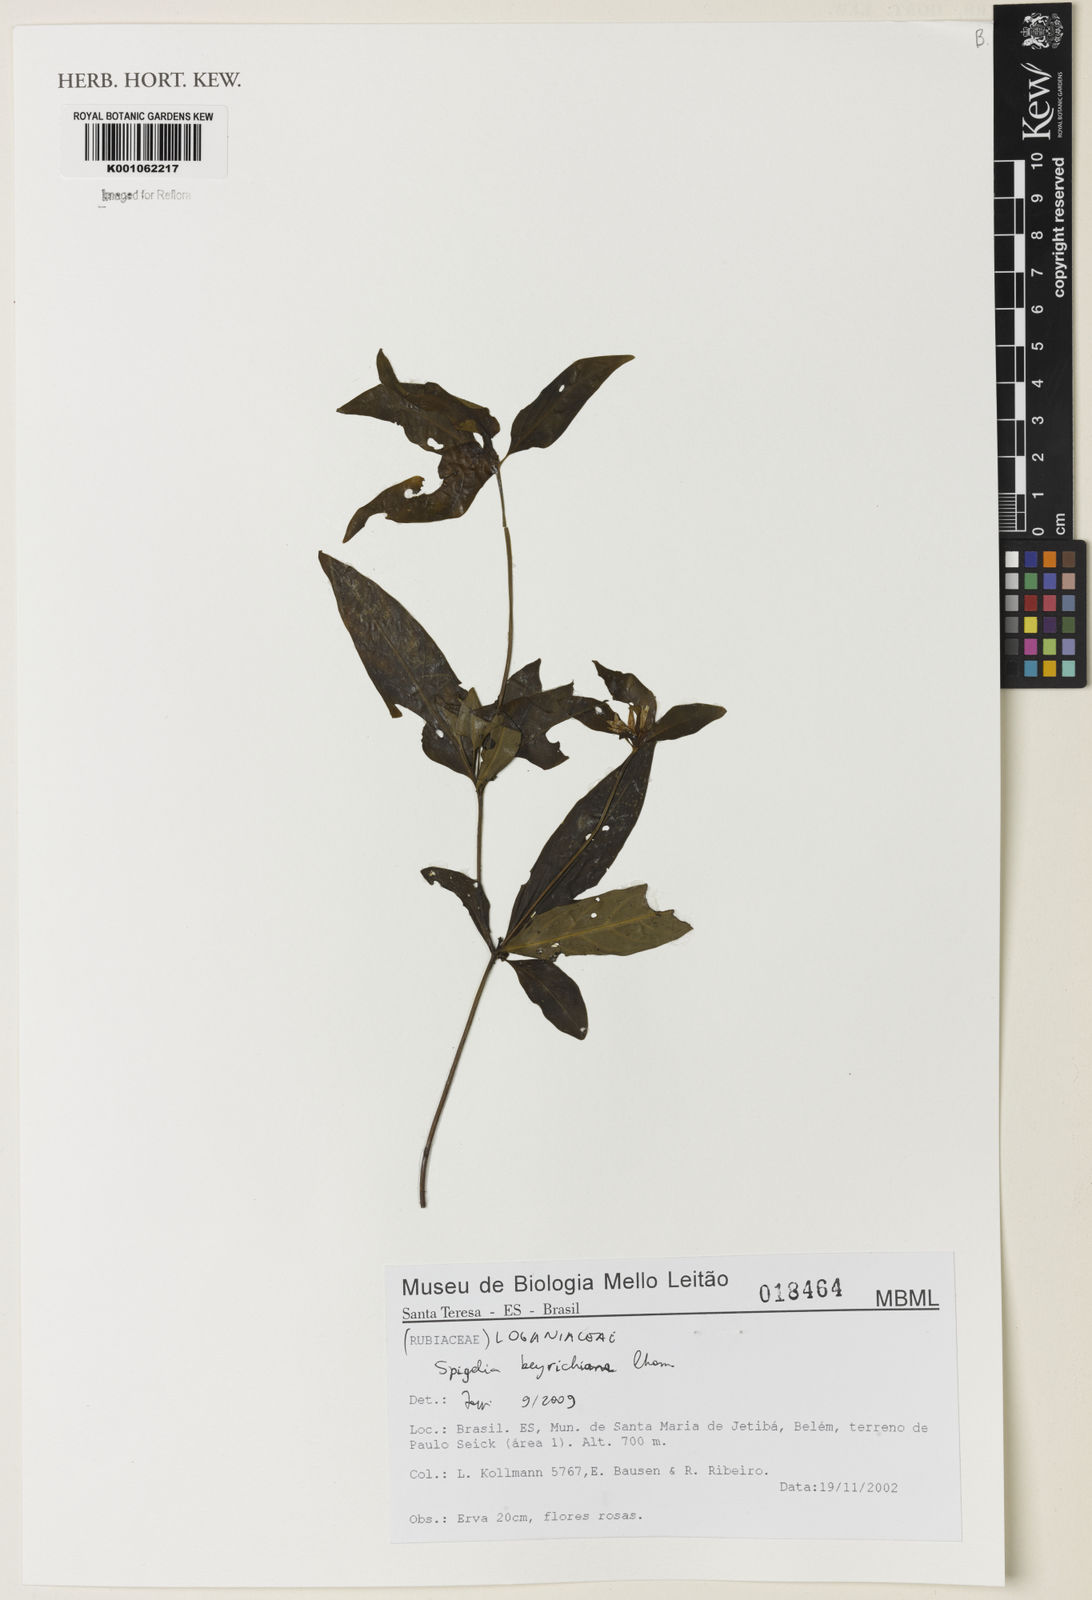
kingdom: Plantae
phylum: Tracheophyta
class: Magnoliopsida
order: Gentianales
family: Loganiaceae
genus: Spigelia
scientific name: Spigelia beyrichiana
